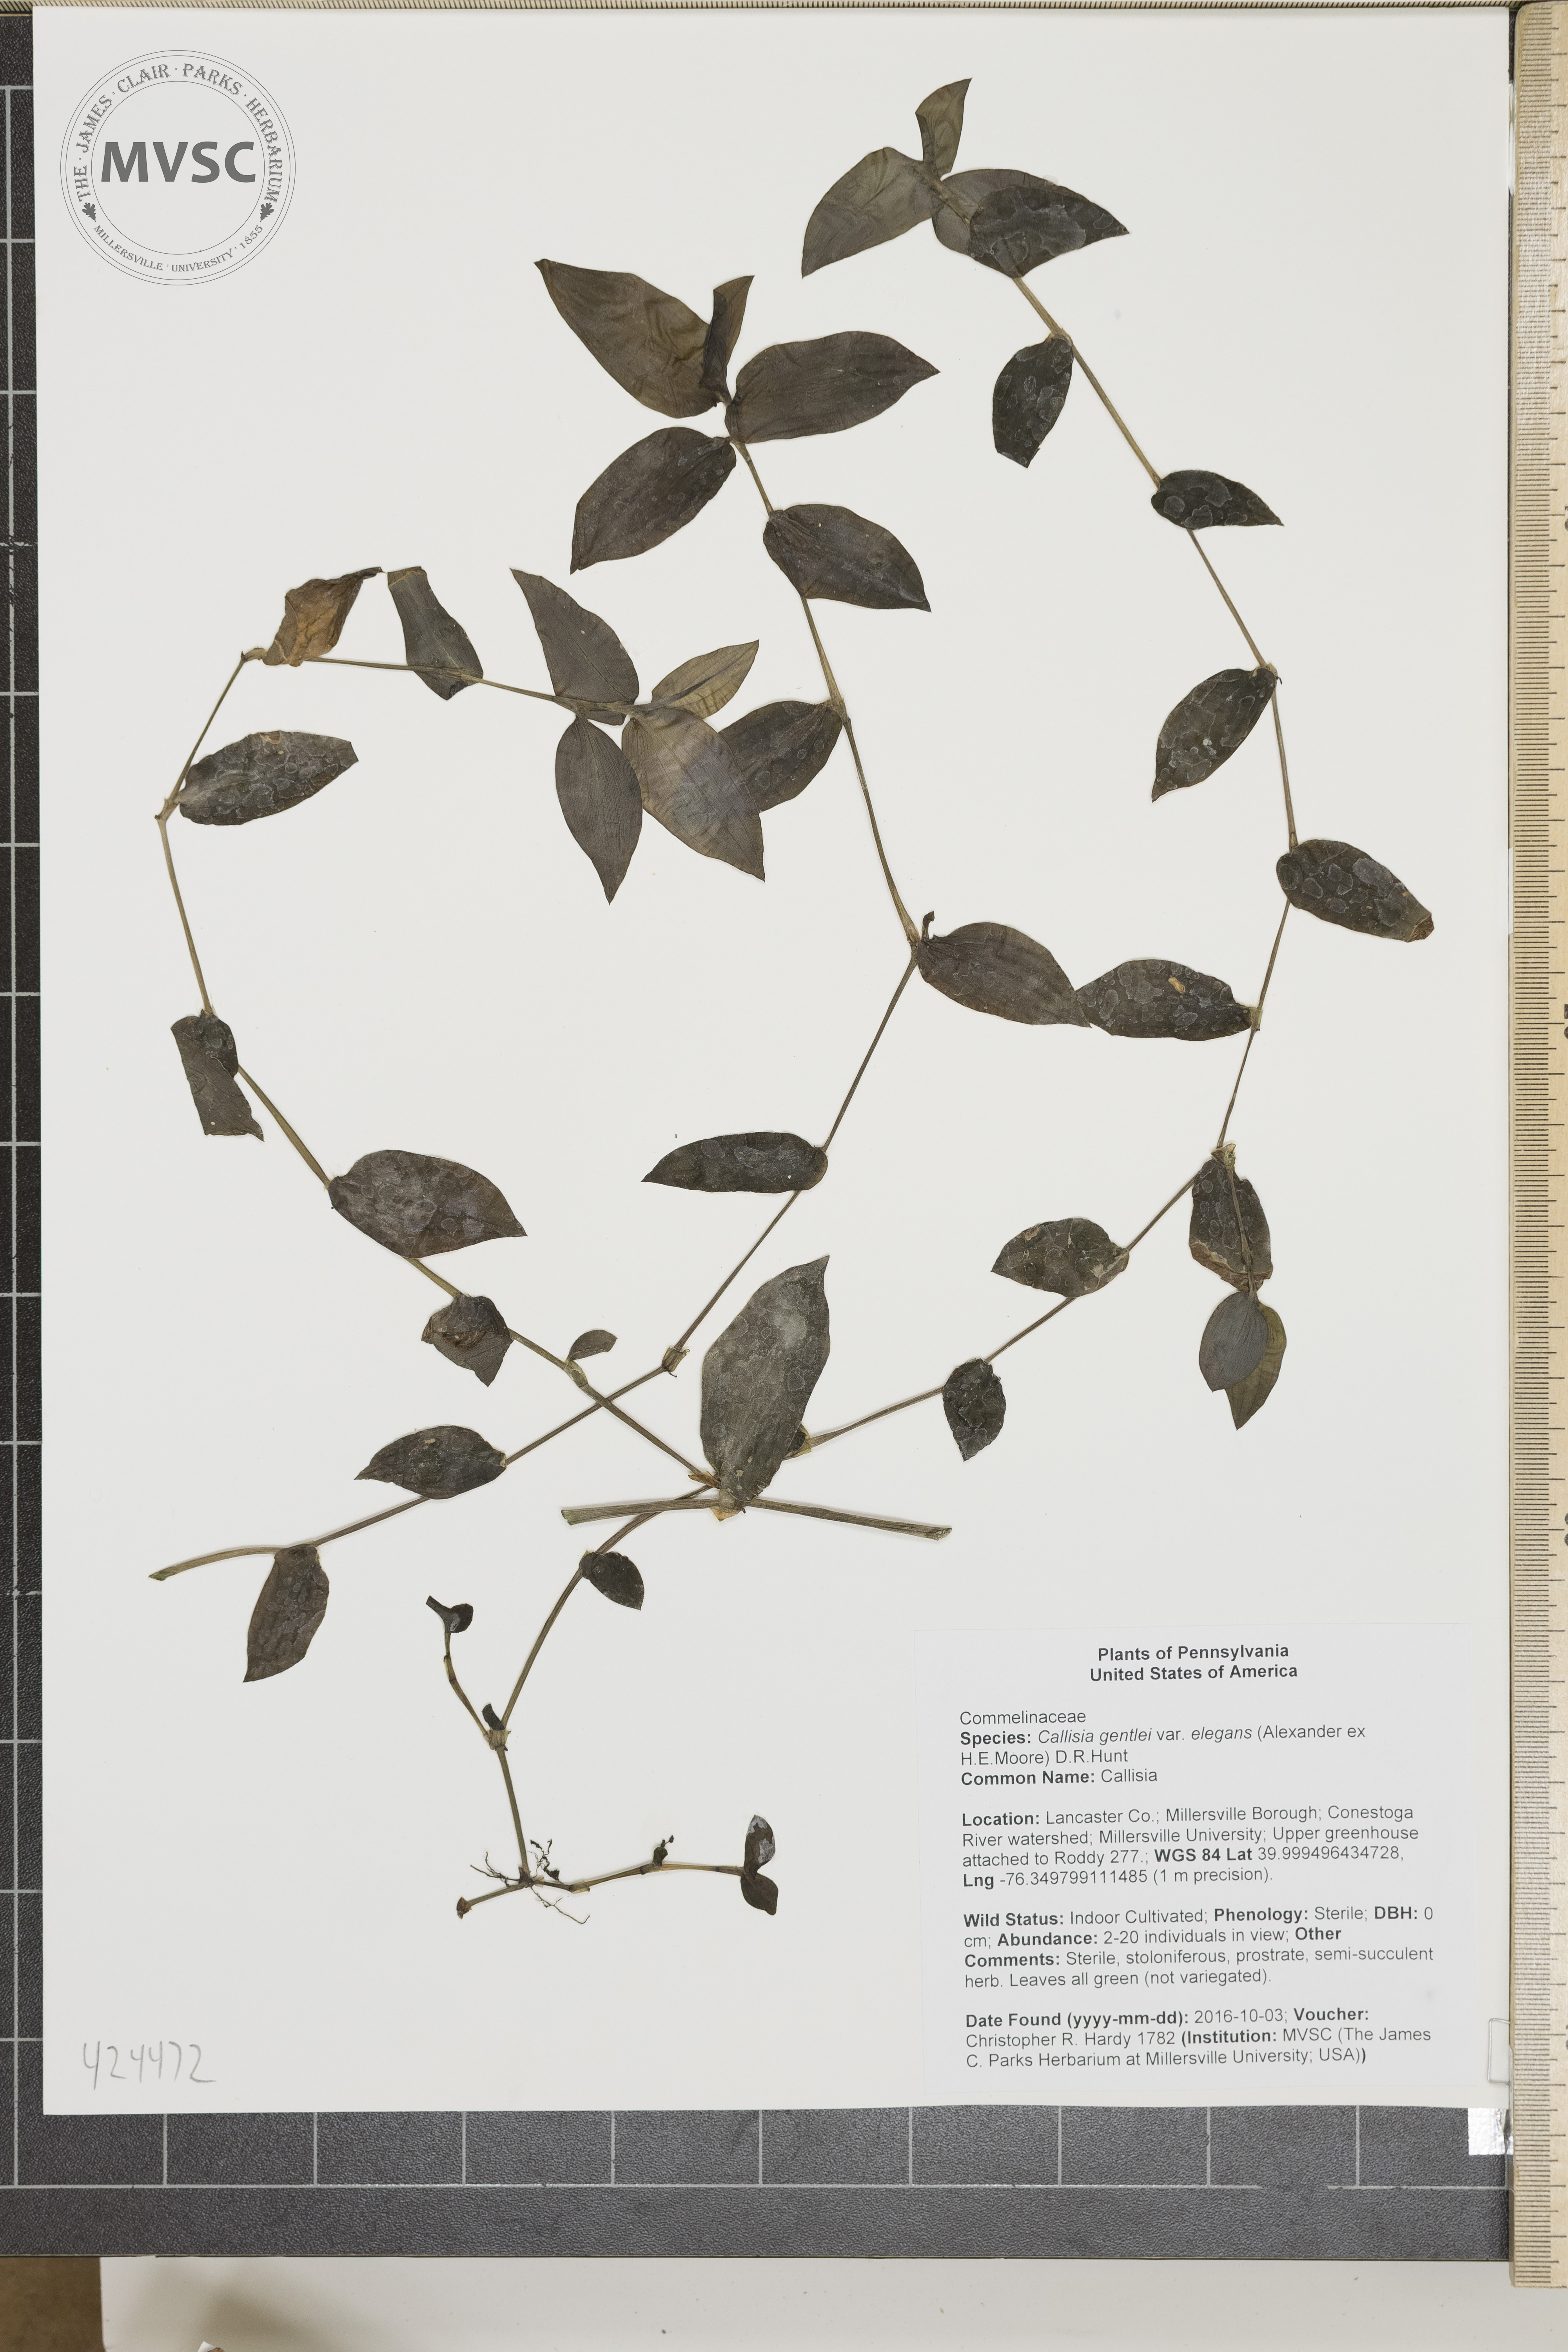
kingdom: Plantae
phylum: Tracheophyta
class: Liliopsida
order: Commelinales
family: Commelinaceae
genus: Callisia
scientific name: Callisia gentlei
